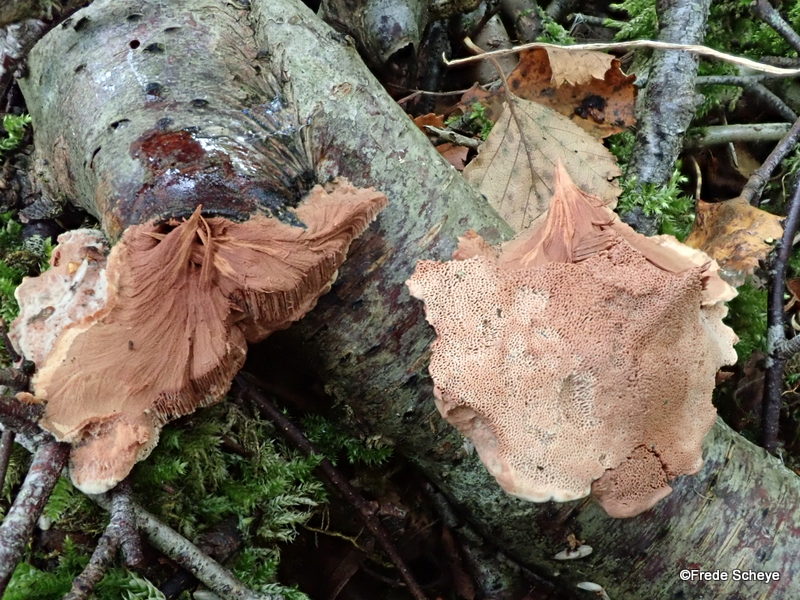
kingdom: Fungi
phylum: Basidiomycota
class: Agaricomycetes
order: Polyporales
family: Phanerochaetaceae
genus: Hapalopilus
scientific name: Hapalopilus rutilans
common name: rødlig okkerporesvamp
